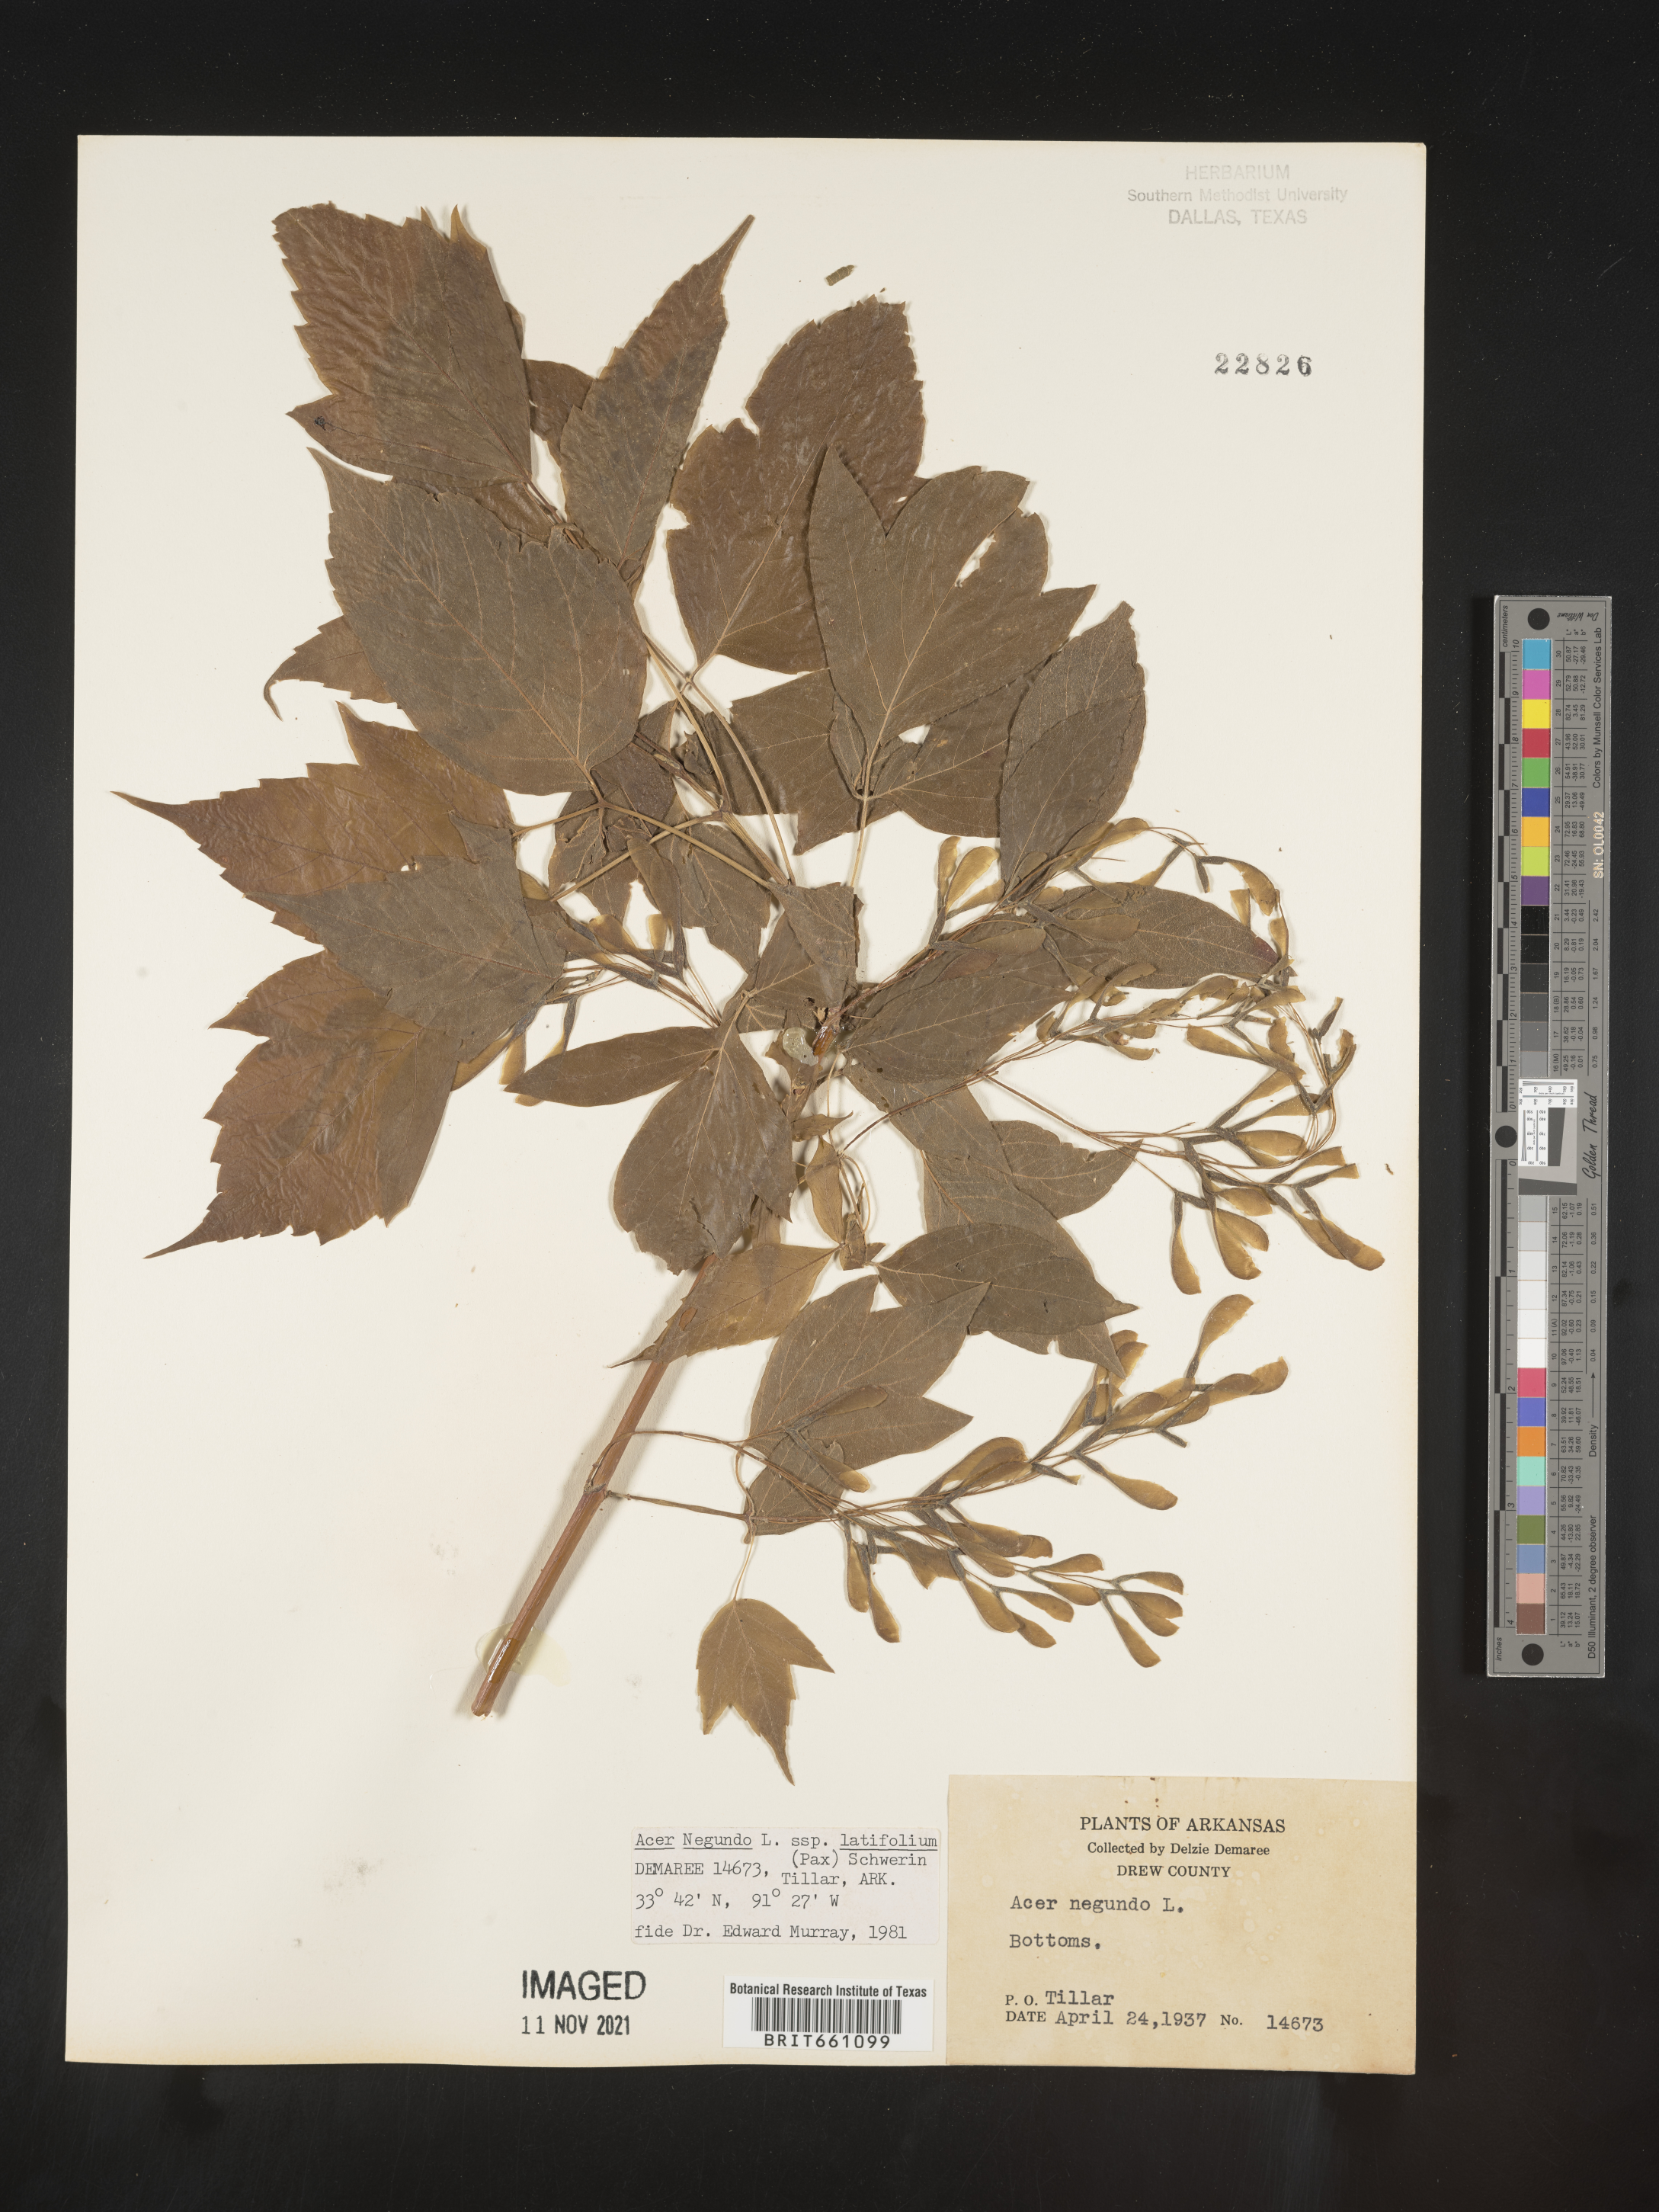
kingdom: Plantae
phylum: Tracheophyta
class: Magnoliopsida
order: Sapindales
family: Sapindaceae
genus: Acer
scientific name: Acer negundo
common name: Ashleaf maple
